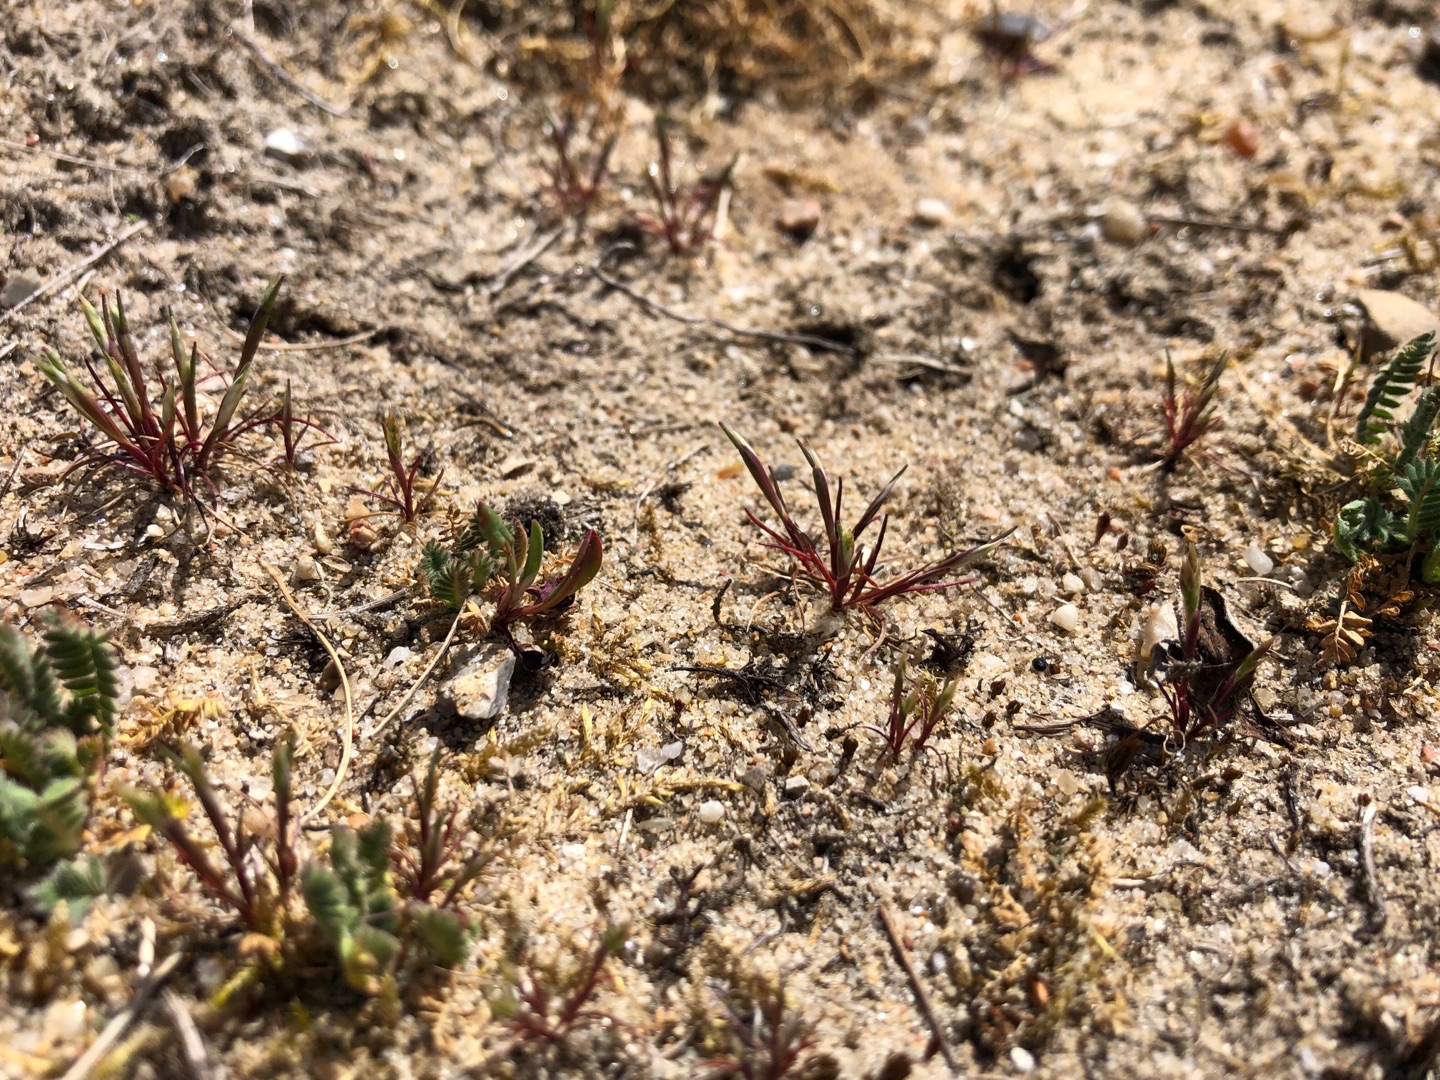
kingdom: Plantae
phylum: Tracheophyta
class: Liliopsida
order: Poales
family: Poaceae
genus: Aira
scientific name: Aira praecox
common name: Tidlig dværgbunke
